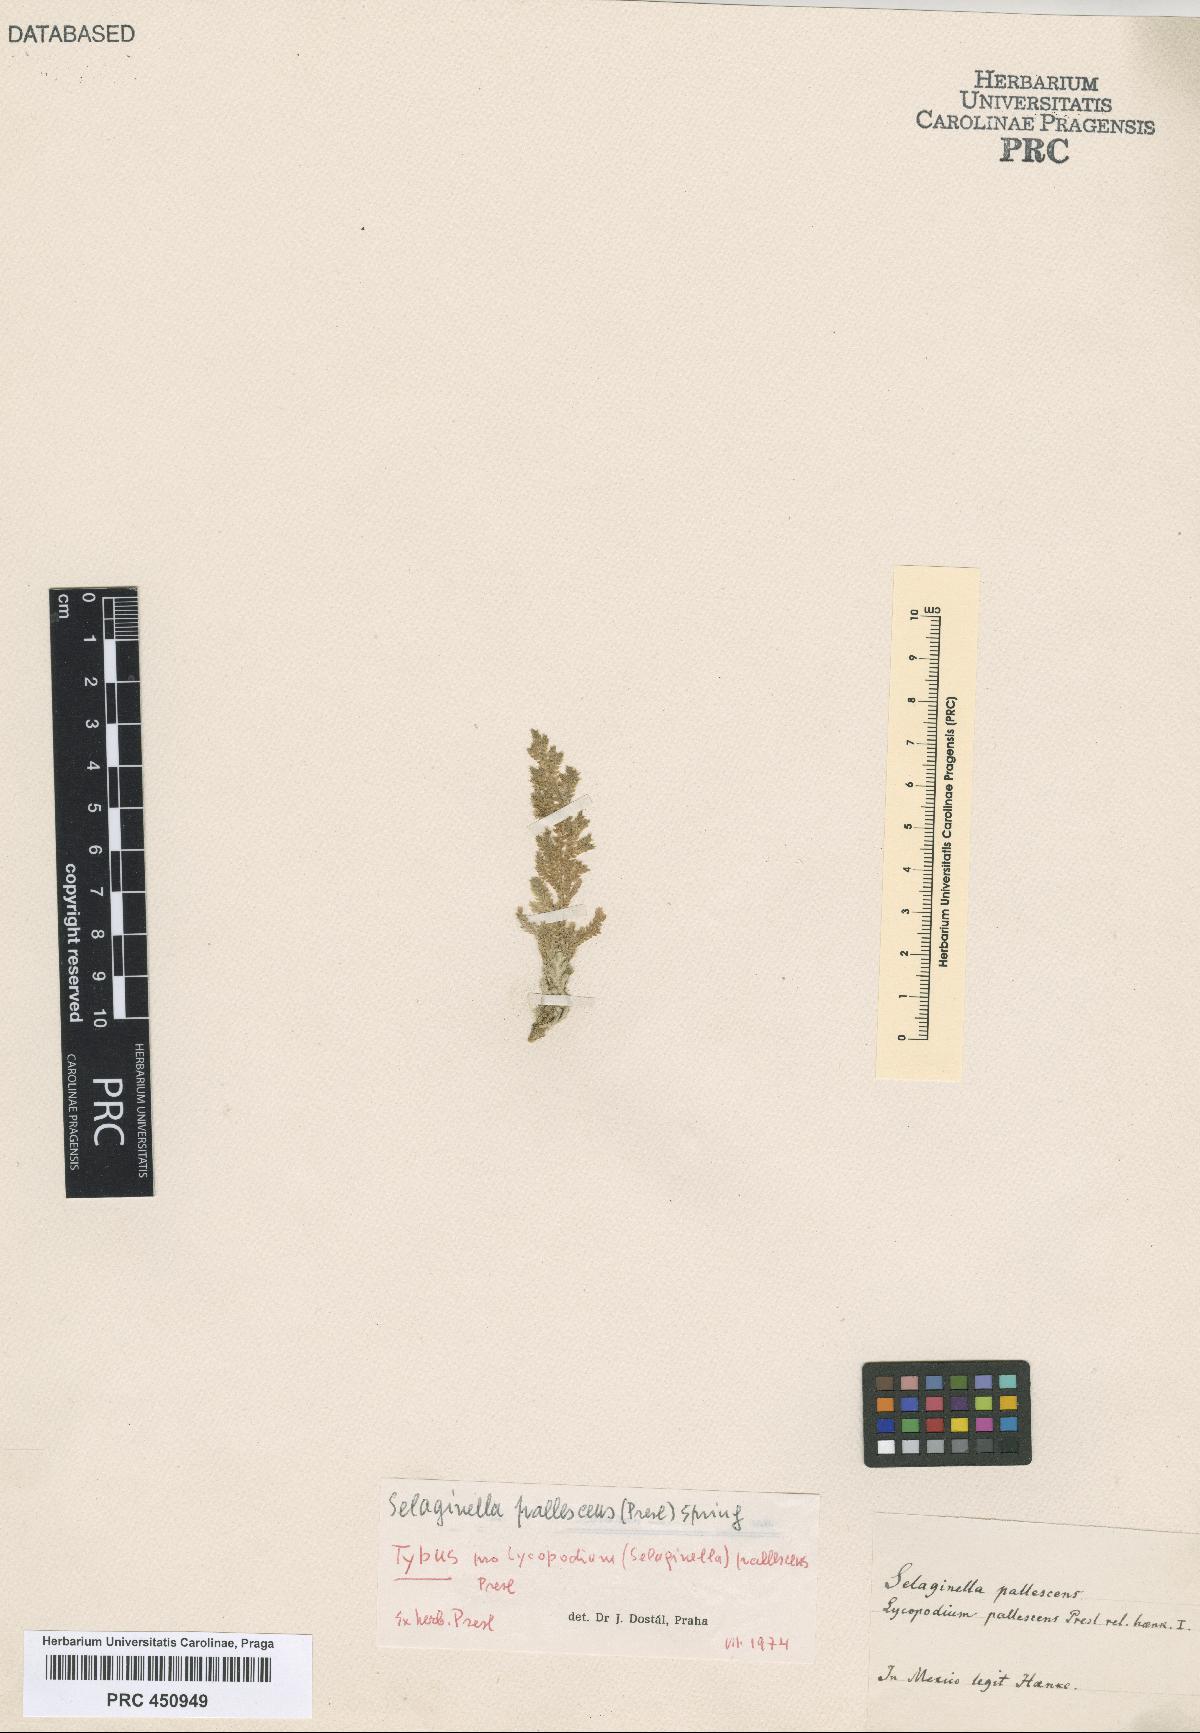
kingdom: Plantae
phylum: Tracheophyta
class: Lycopodiopsida
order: Selaginellales
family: Selaginellaceae
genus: Selaginella
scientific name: Selaginella pallescens
